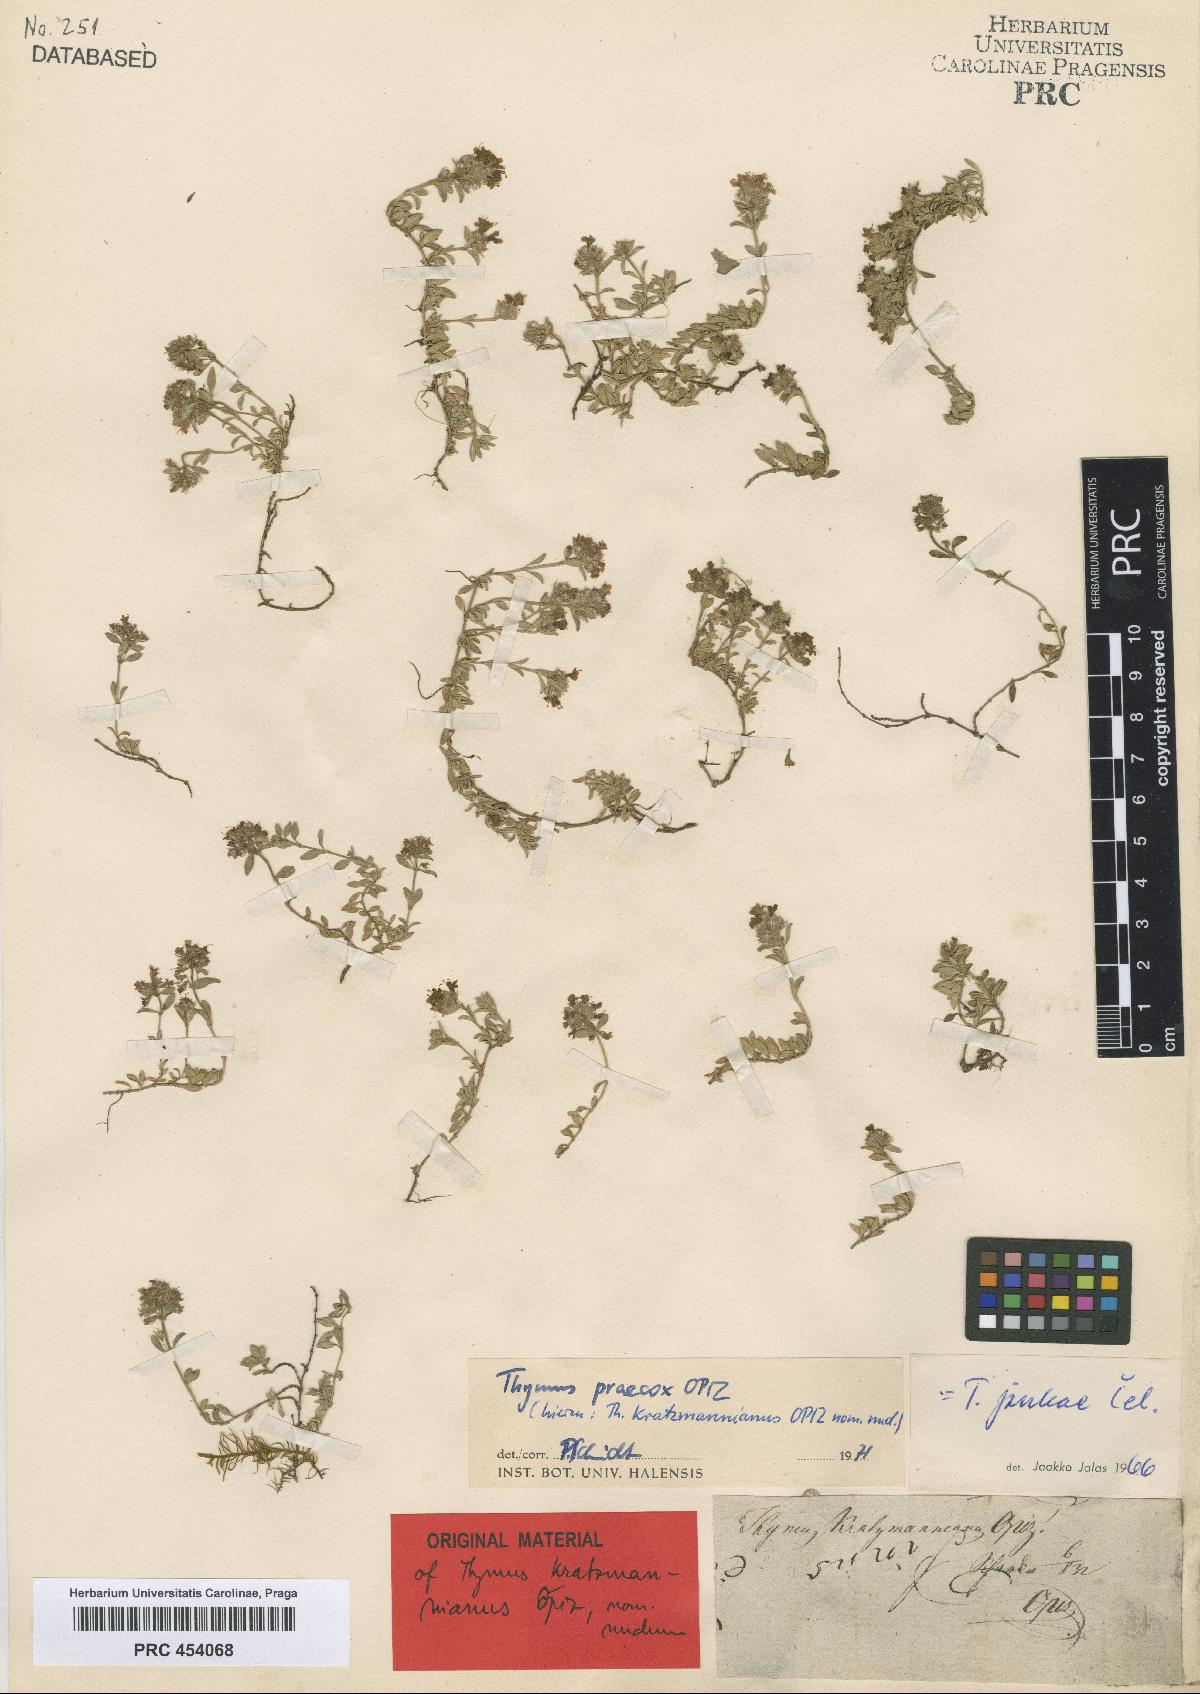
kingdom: Plantae
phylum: Tracheophyta
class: Magnoliopsida
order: Lamiales
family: Lamiaceae
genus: Thymus
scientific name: Thymus praecox
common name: Wild thyme
